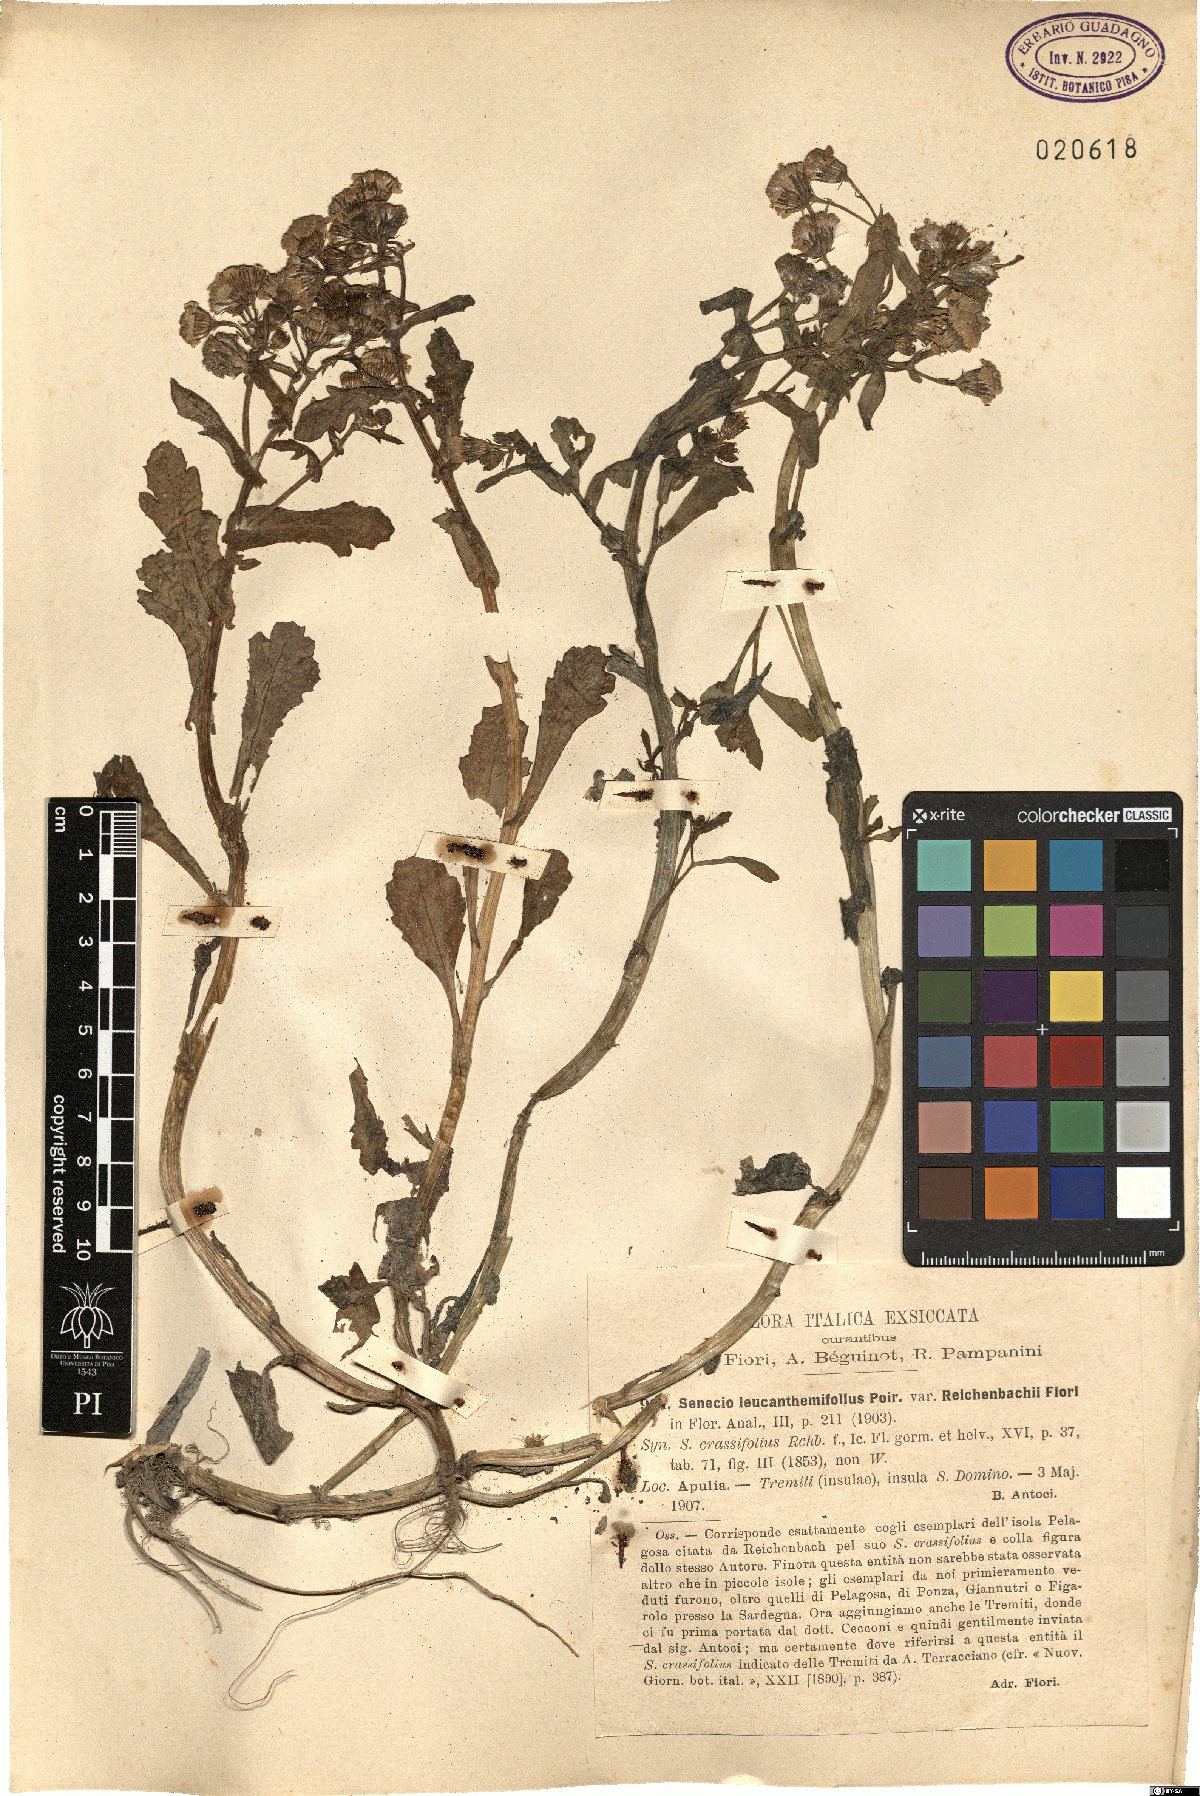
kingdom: Plantae
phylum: Tracheophyta
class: Magnoliopsida
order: Asterales
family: Asteraceae
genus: Senecio
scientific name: Senecio leucanthemifolius
